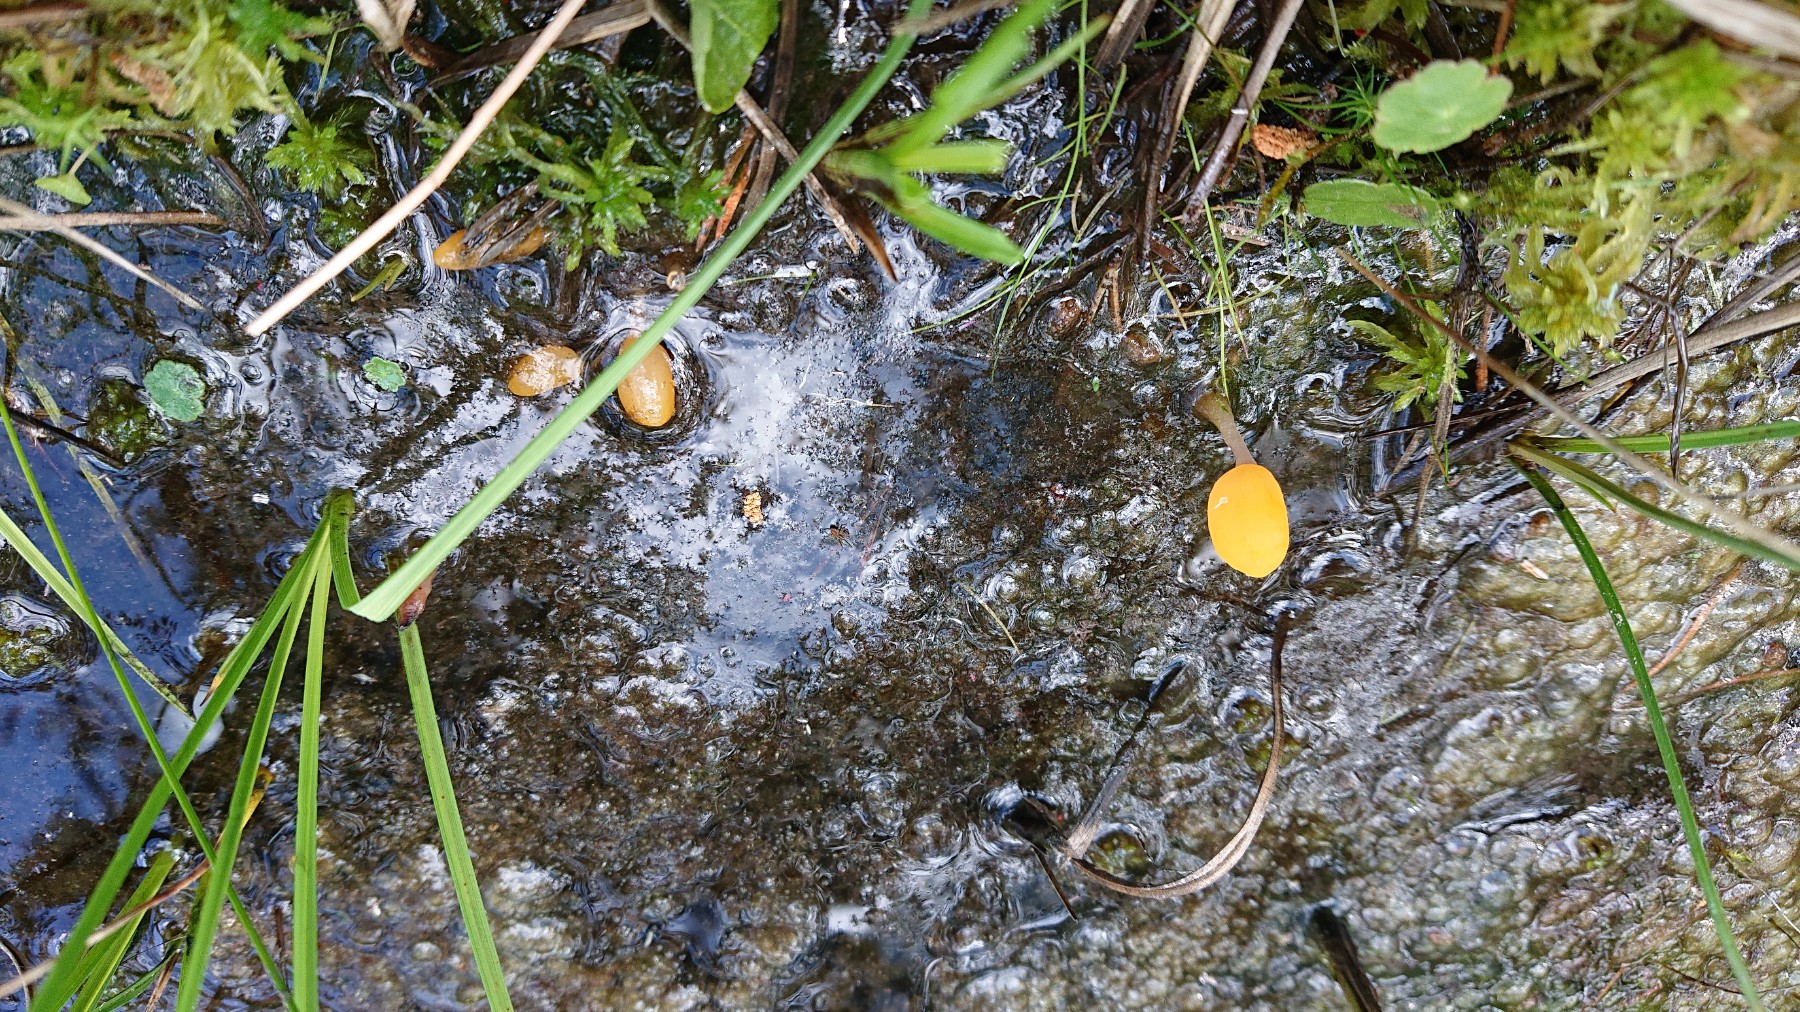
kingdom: Fungi
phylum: Ascomycota
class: Leotiomycetes
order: Helotiales
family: Cenangiaceae
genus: Mitrula
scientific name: Mitrula paludosa
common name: gul nøkketunge
